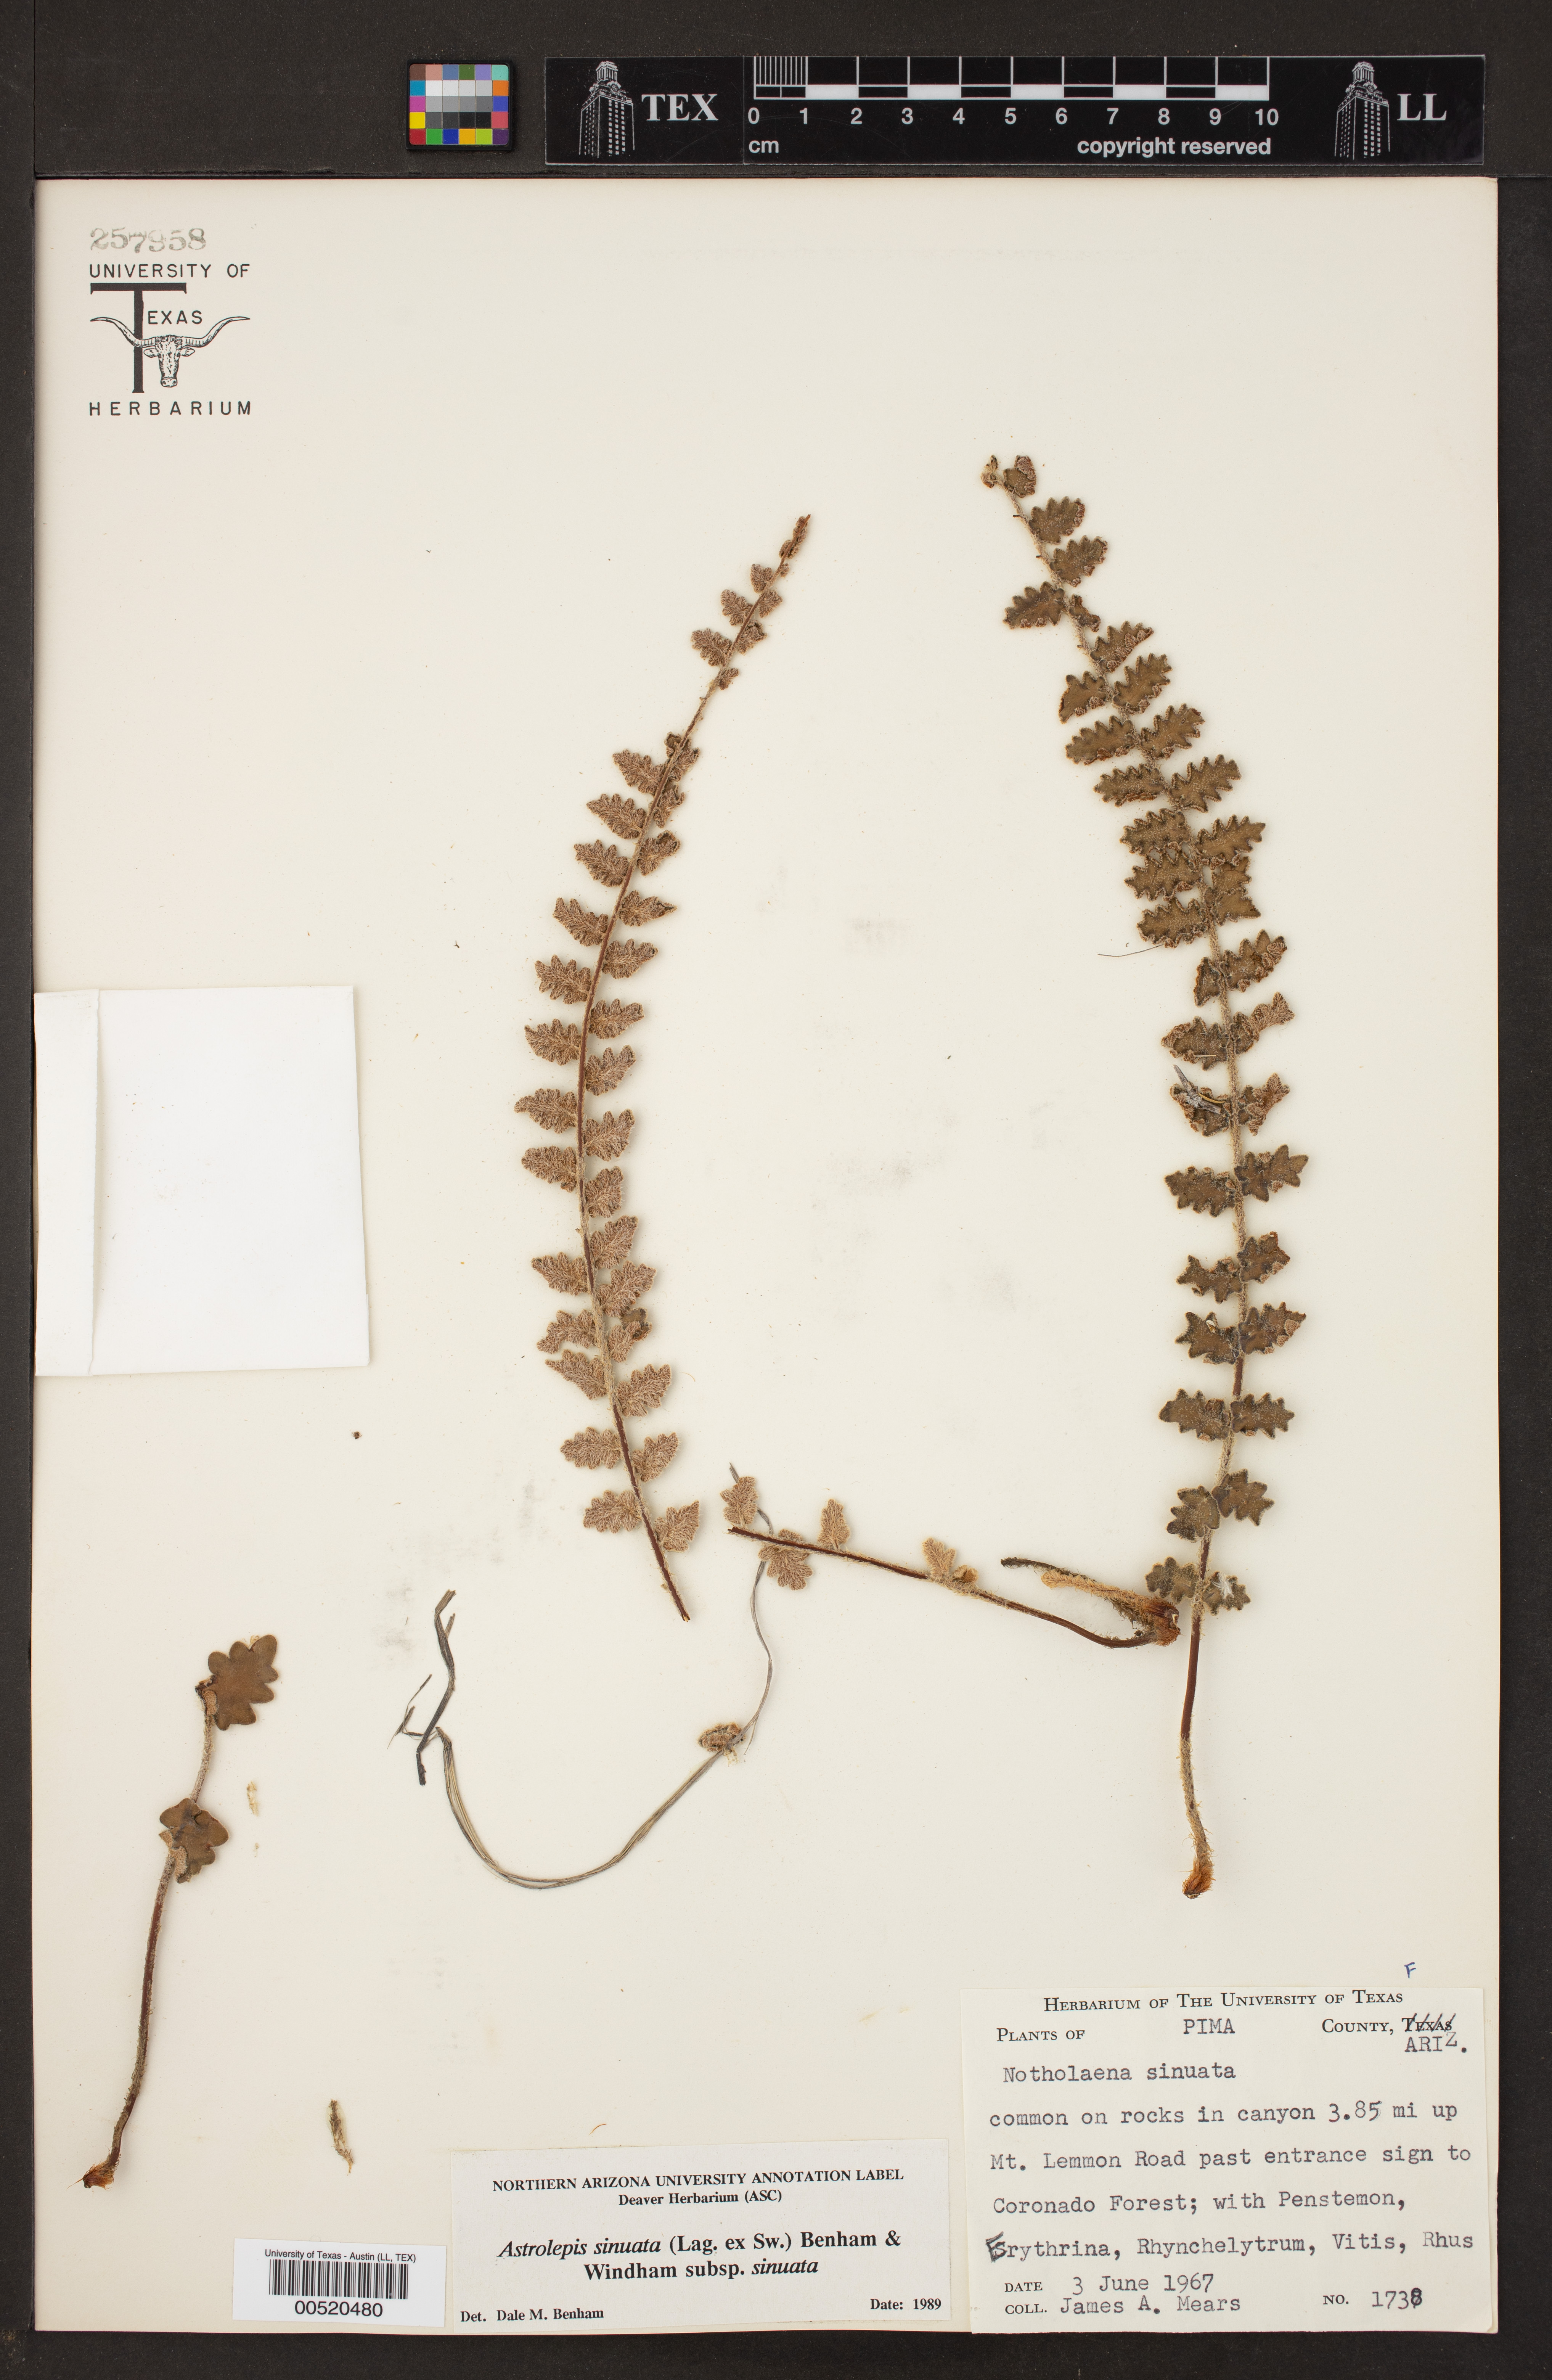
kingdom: Plantae
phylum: Tracheophyta
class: Polypodiopsida
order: Polypodiales
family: Pteridaceae
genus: Astrolepis
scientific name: Astrolepis sinuata
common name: Wavy scaly cloakfern
